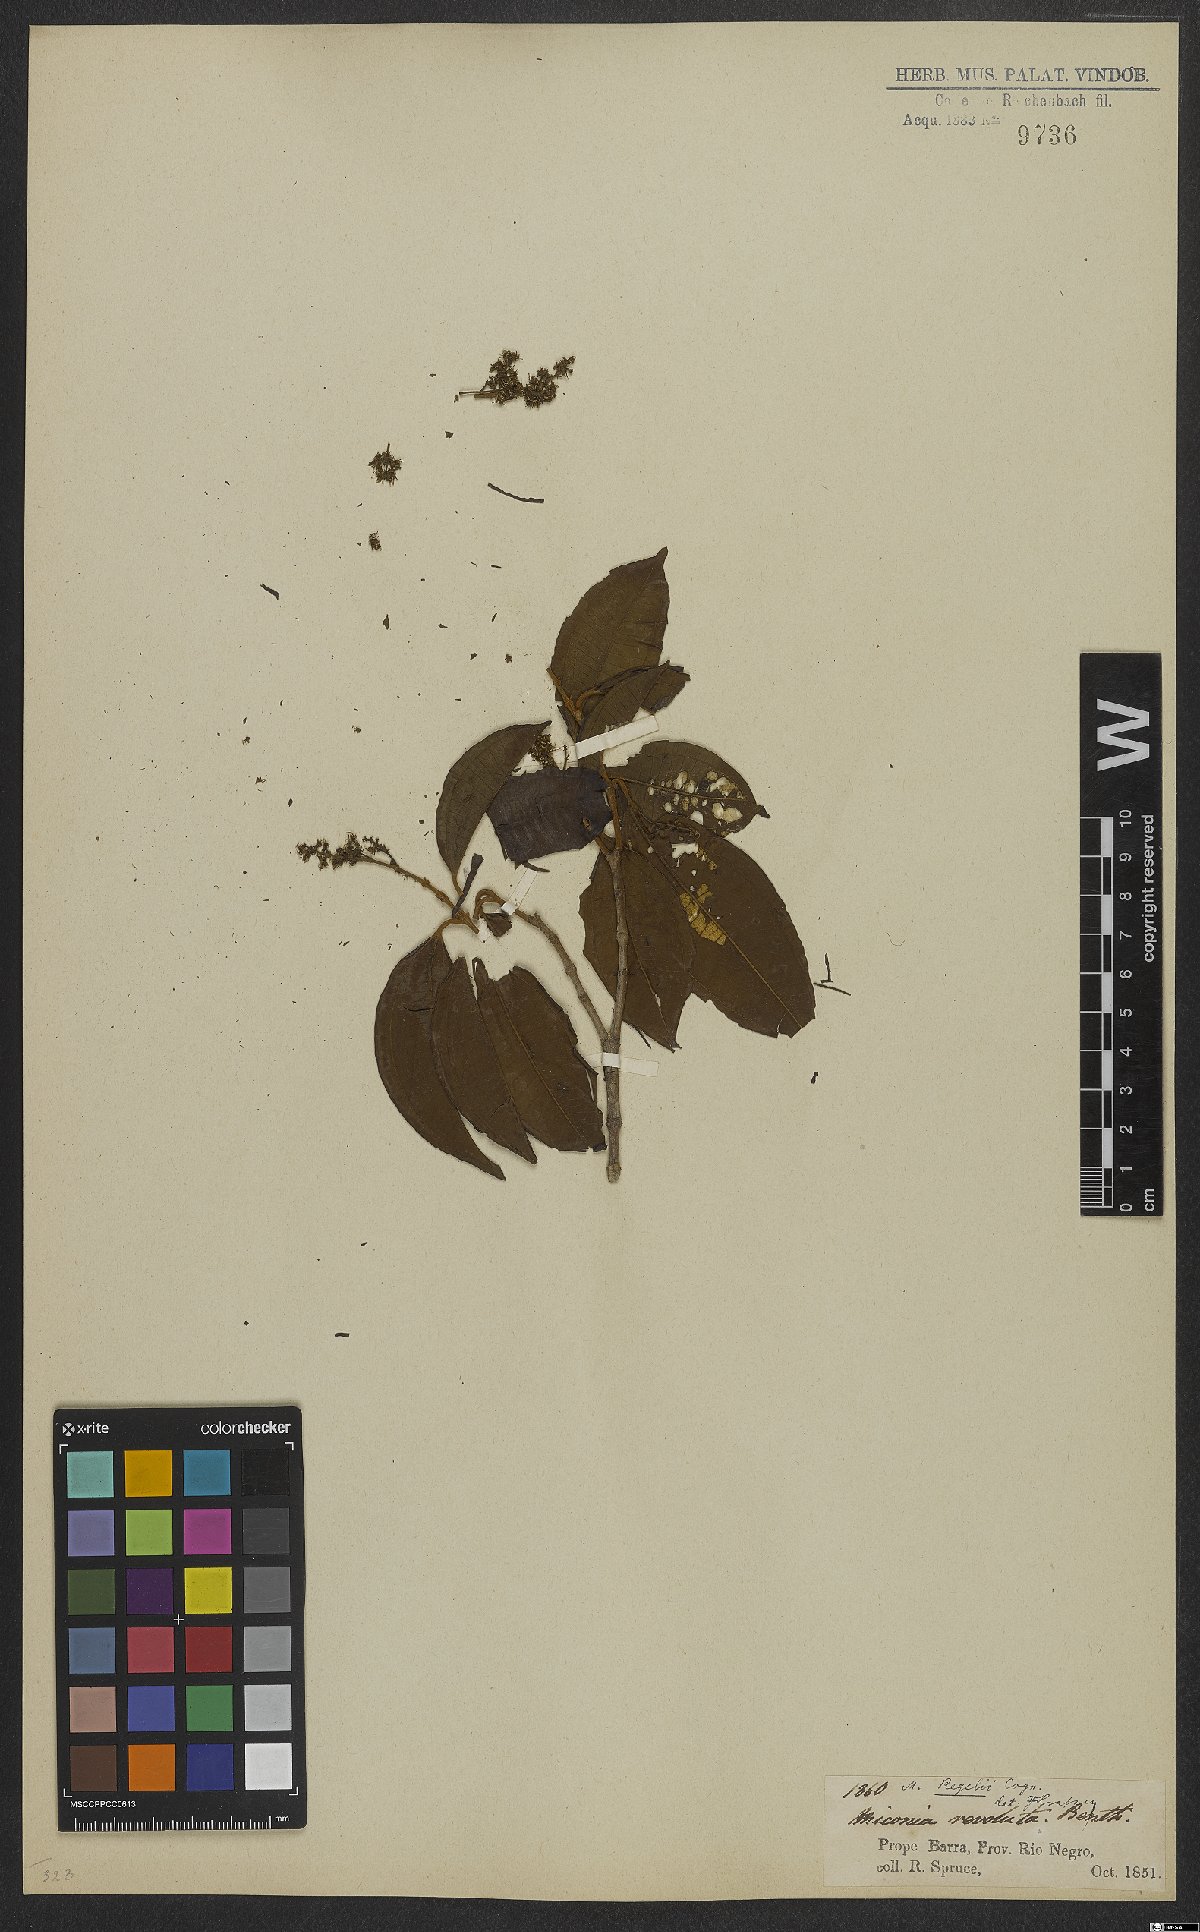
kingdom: Plantae
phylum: Tracheophyta
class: Magnoliopsida
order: Myrtales
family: Melastomataceae
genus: Miconia
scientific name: Miconia regelii
